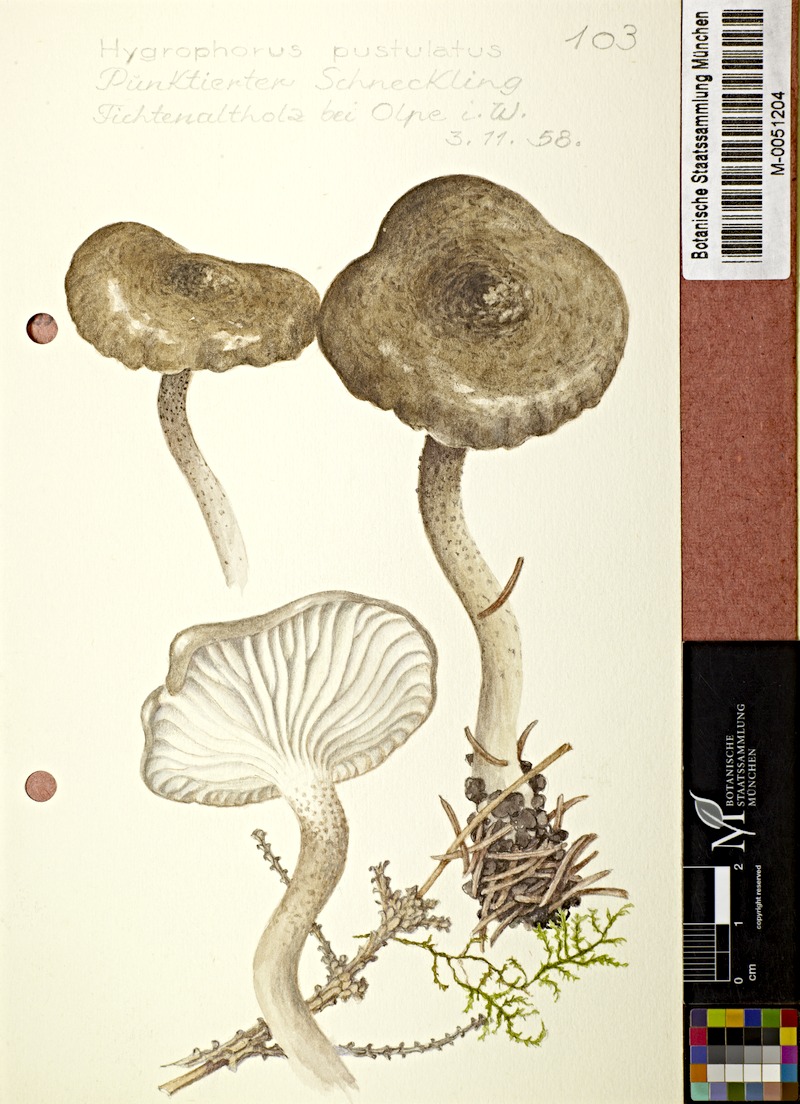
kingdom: Fungi
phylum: Basidiomycota
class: Agaricomycetes
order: Agaricales
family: Hygrophoraceae
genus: Hygrophorus
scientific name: Hygrophorus pustulatus
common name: Blistered woodwax
